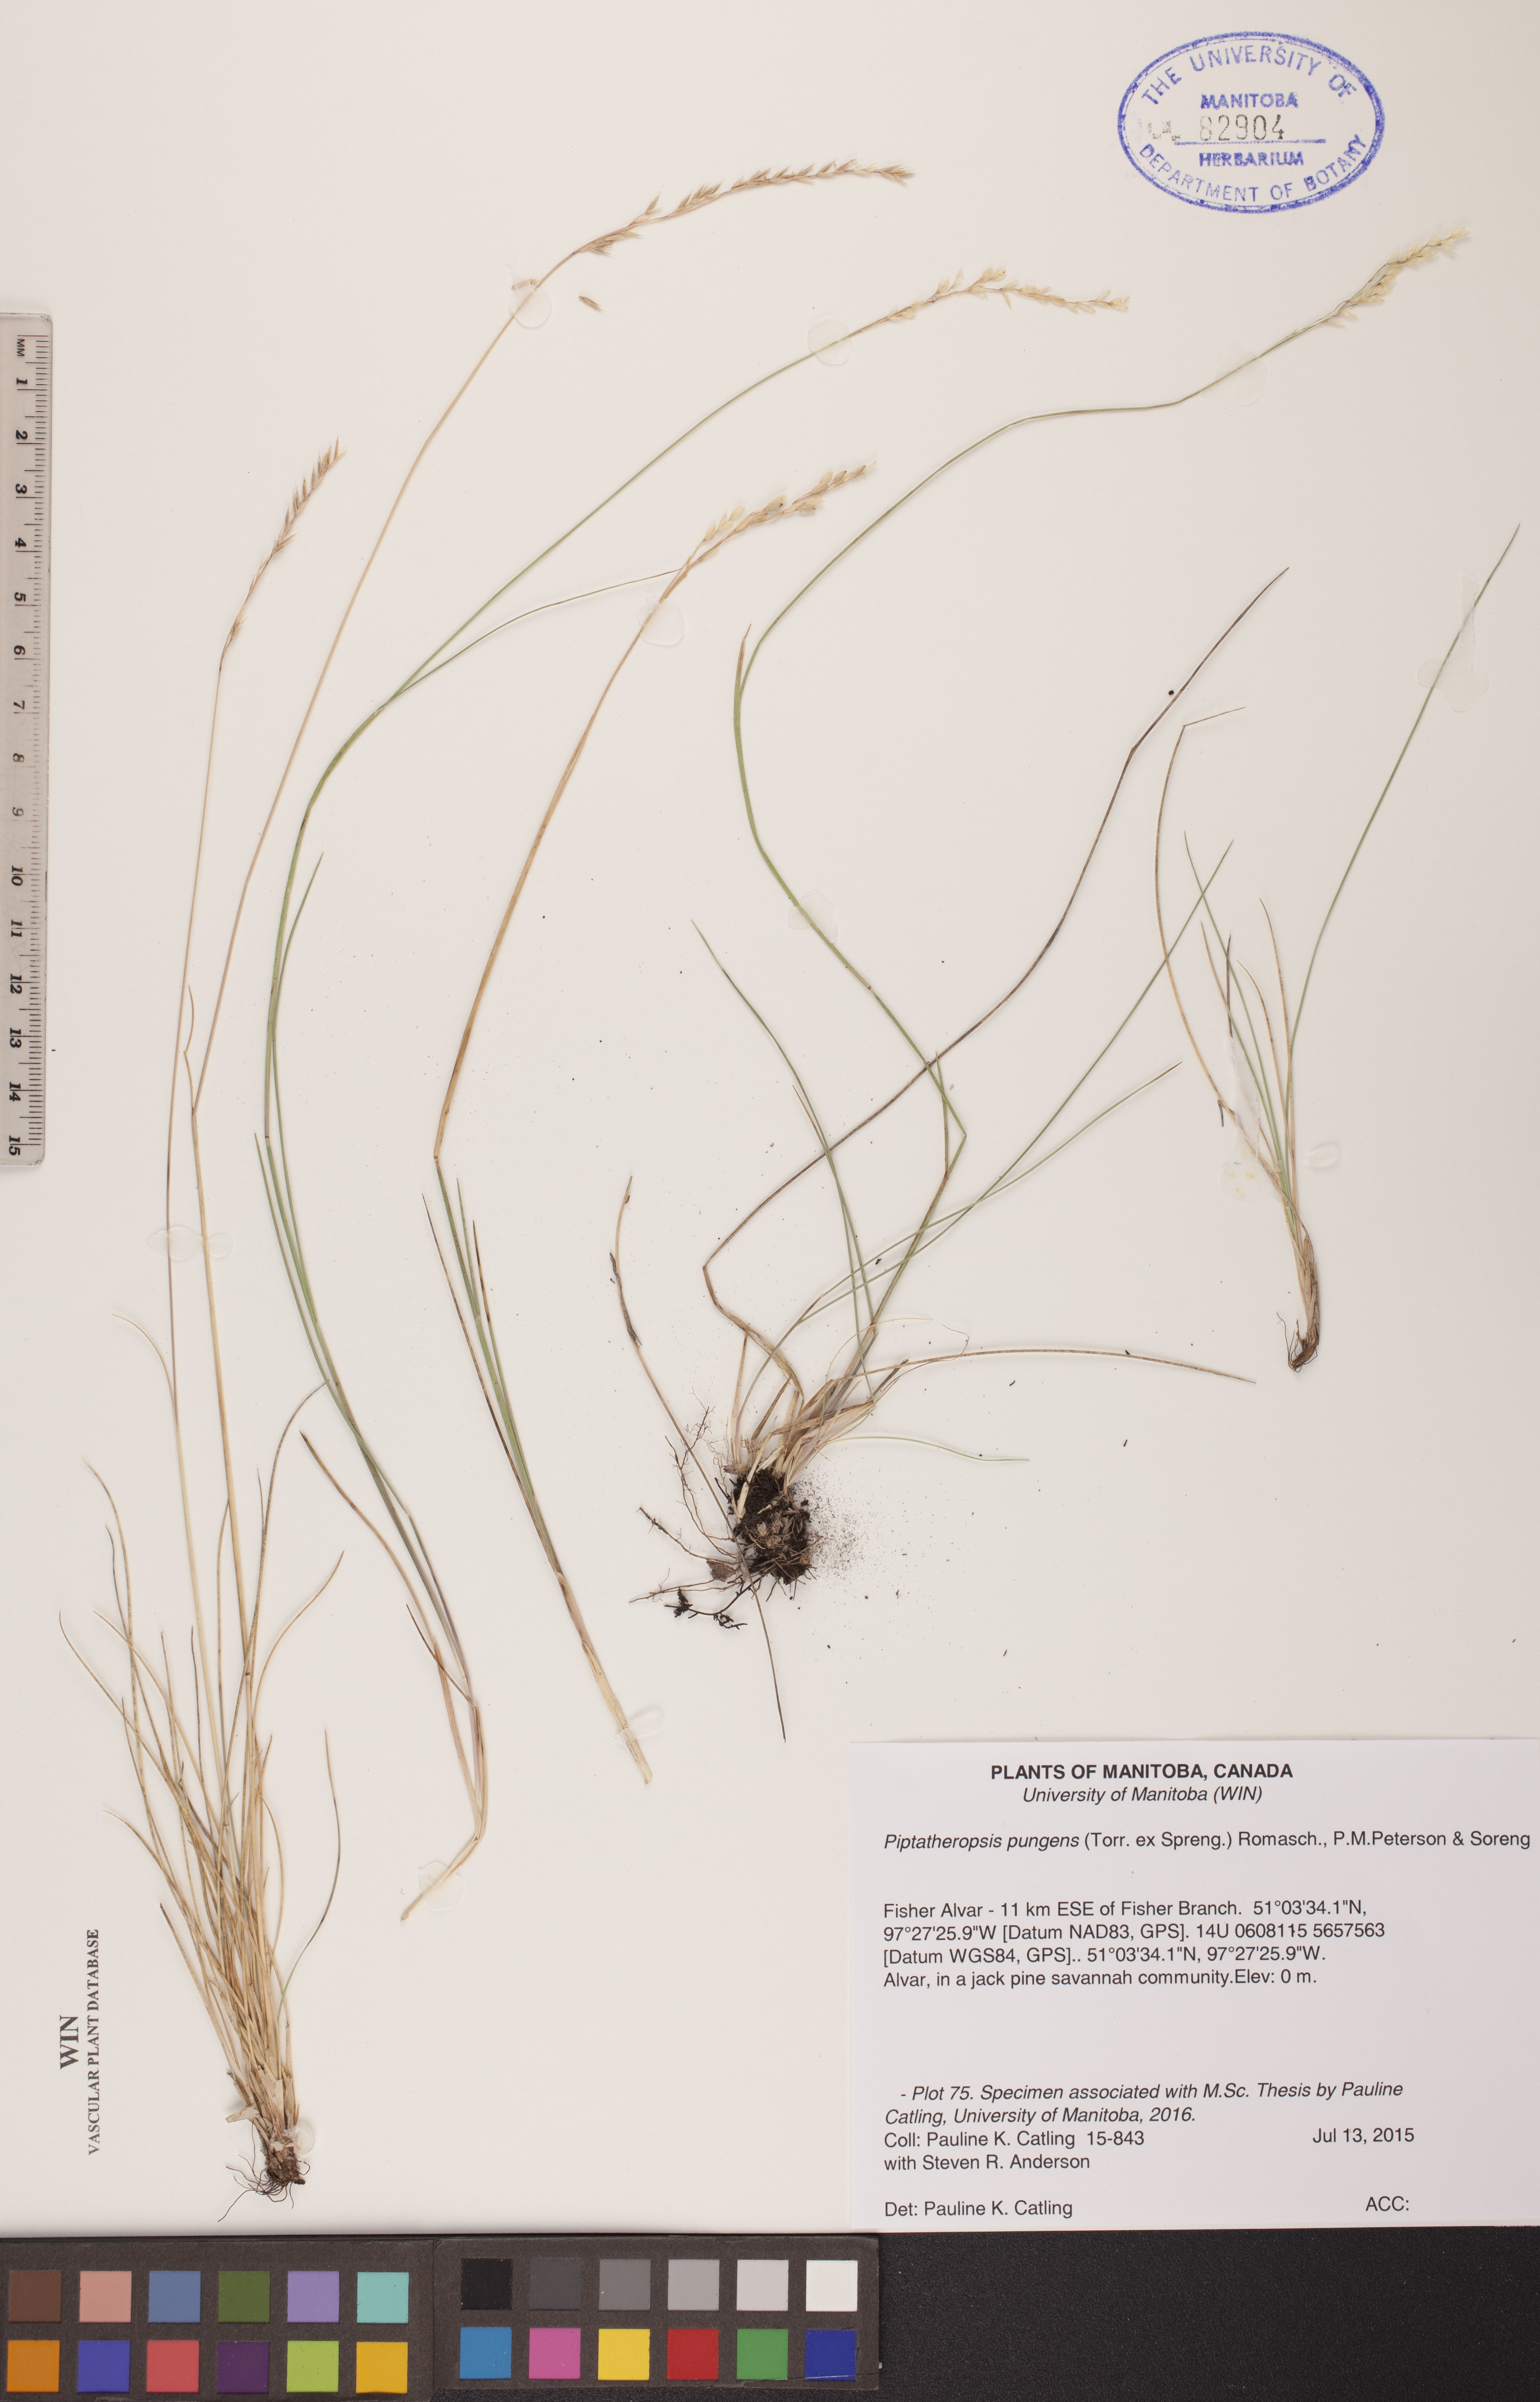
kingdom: Plantae
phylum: Tracheophyta
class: Liliopsida
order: Poales
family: Poaceae
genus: Piptatheropsis
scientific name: Piptatheropsis pungens
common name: Northern ricegrass
